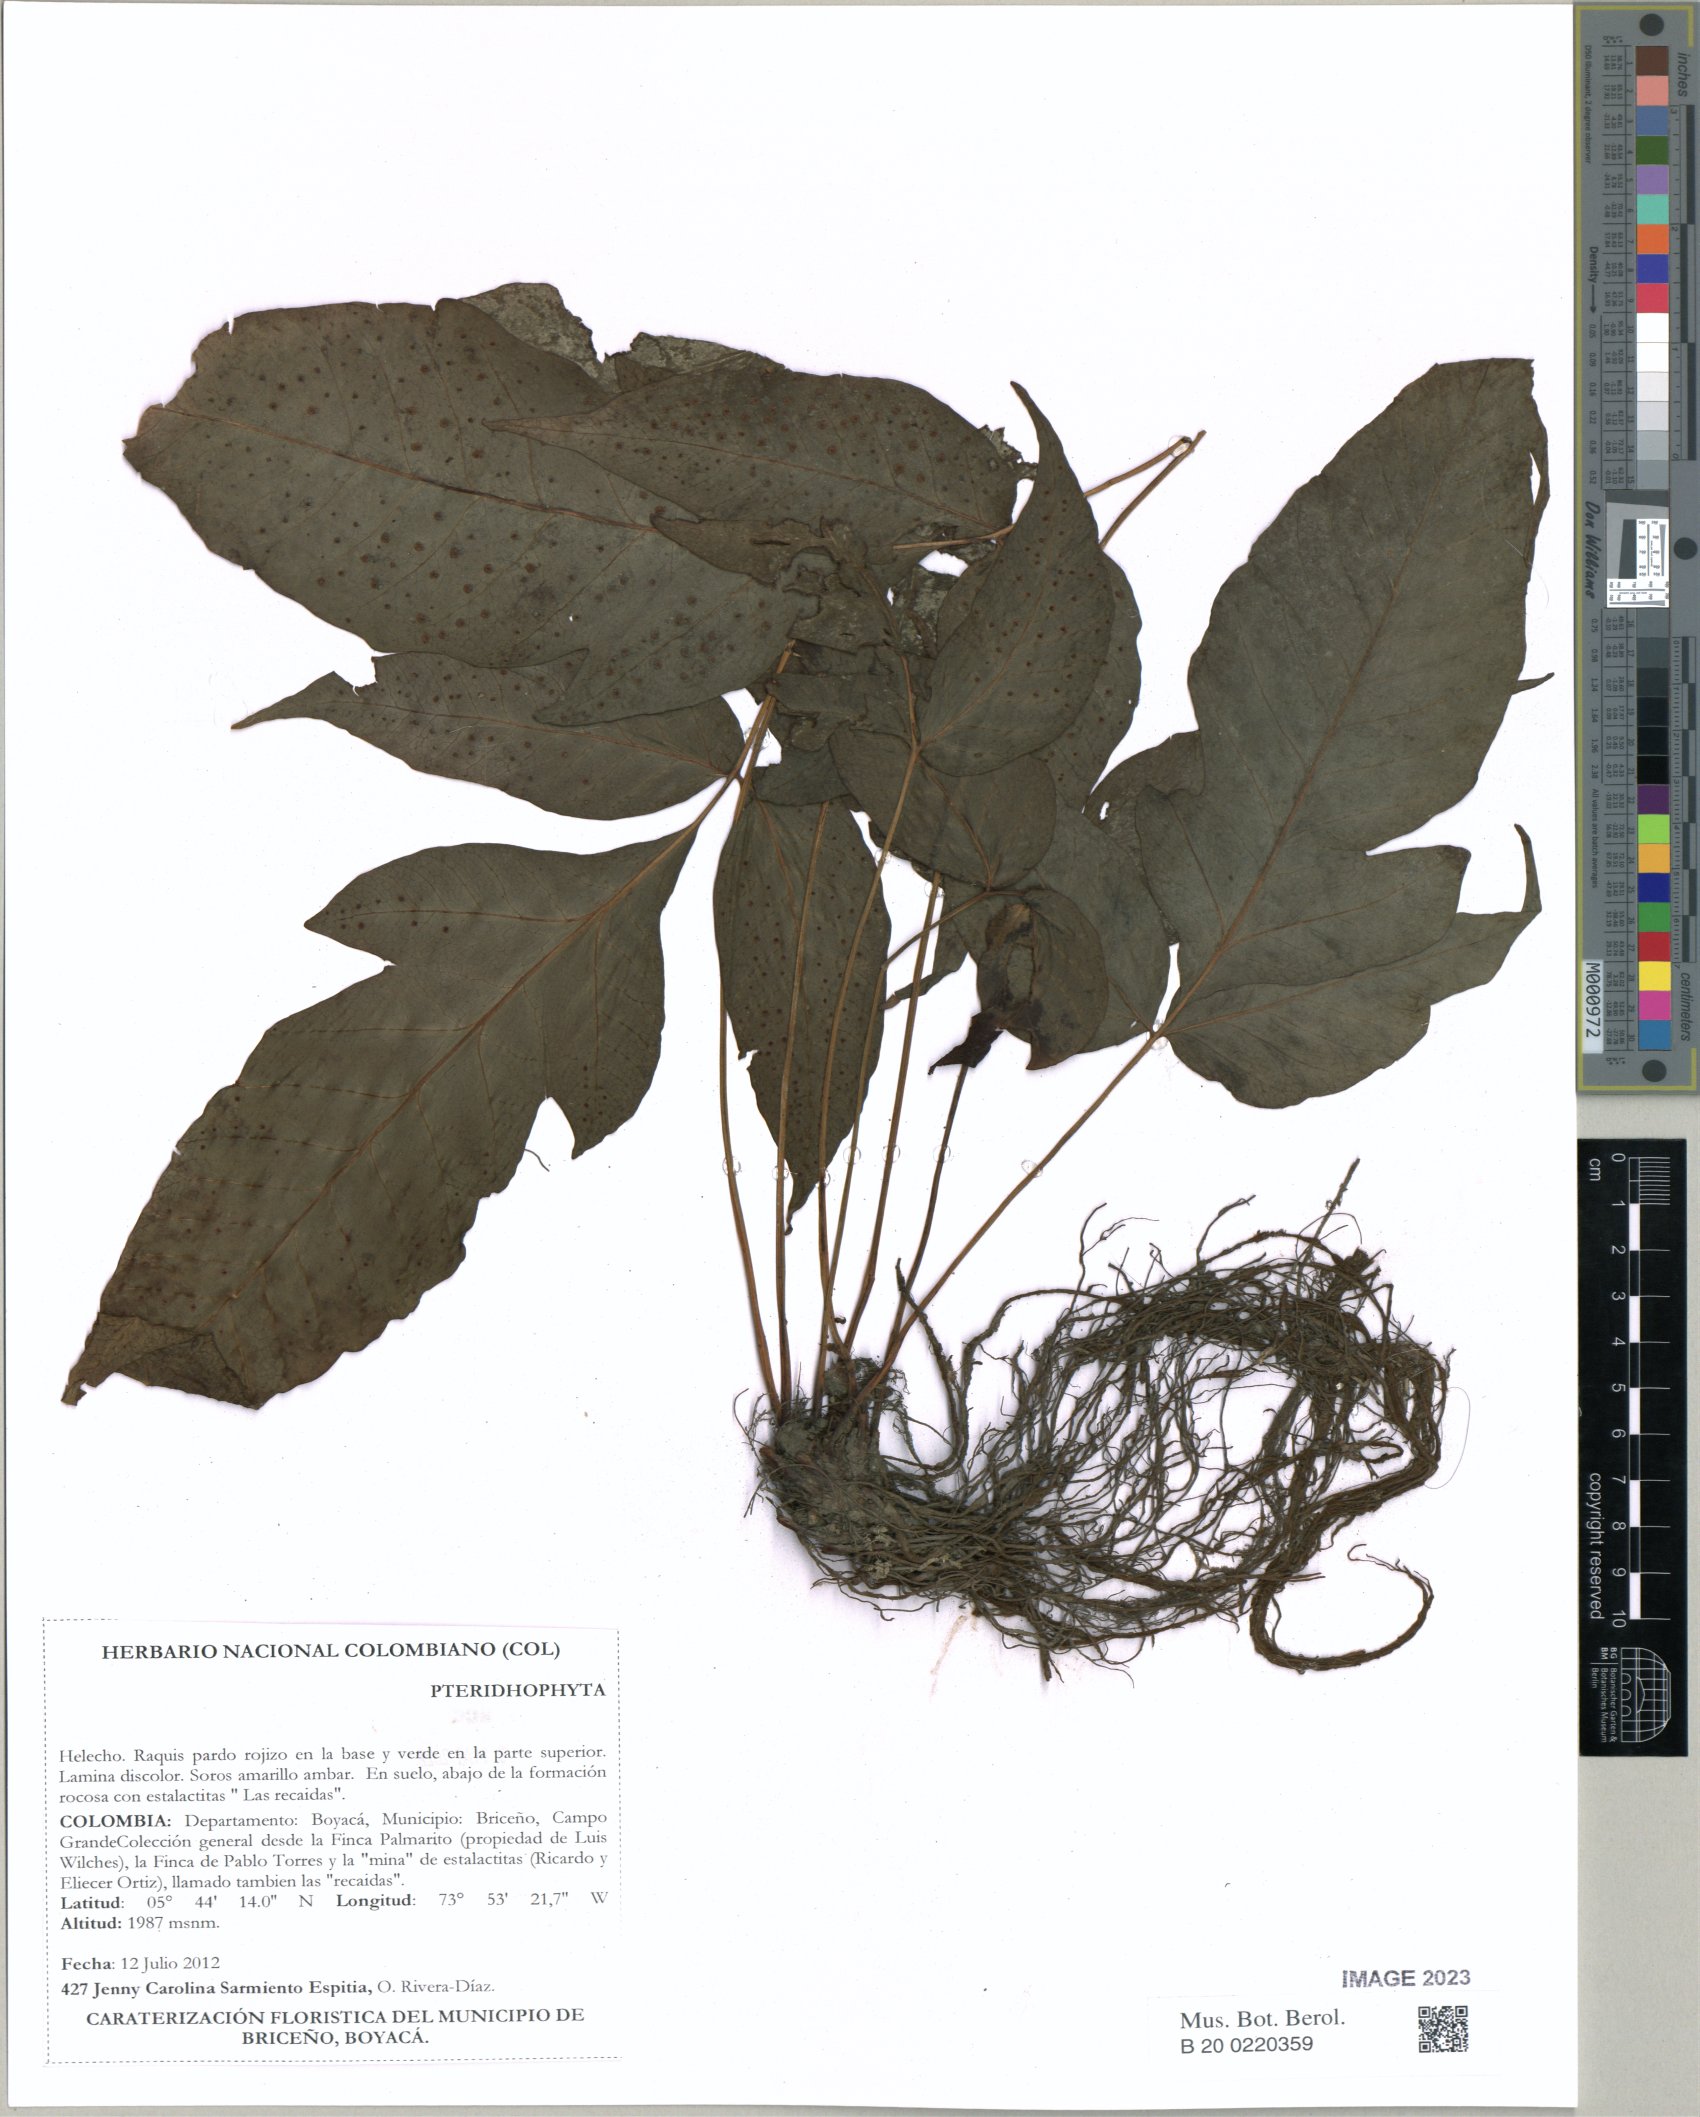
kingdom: Plantae
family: Pteridophyta
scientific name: Pteridophyta
